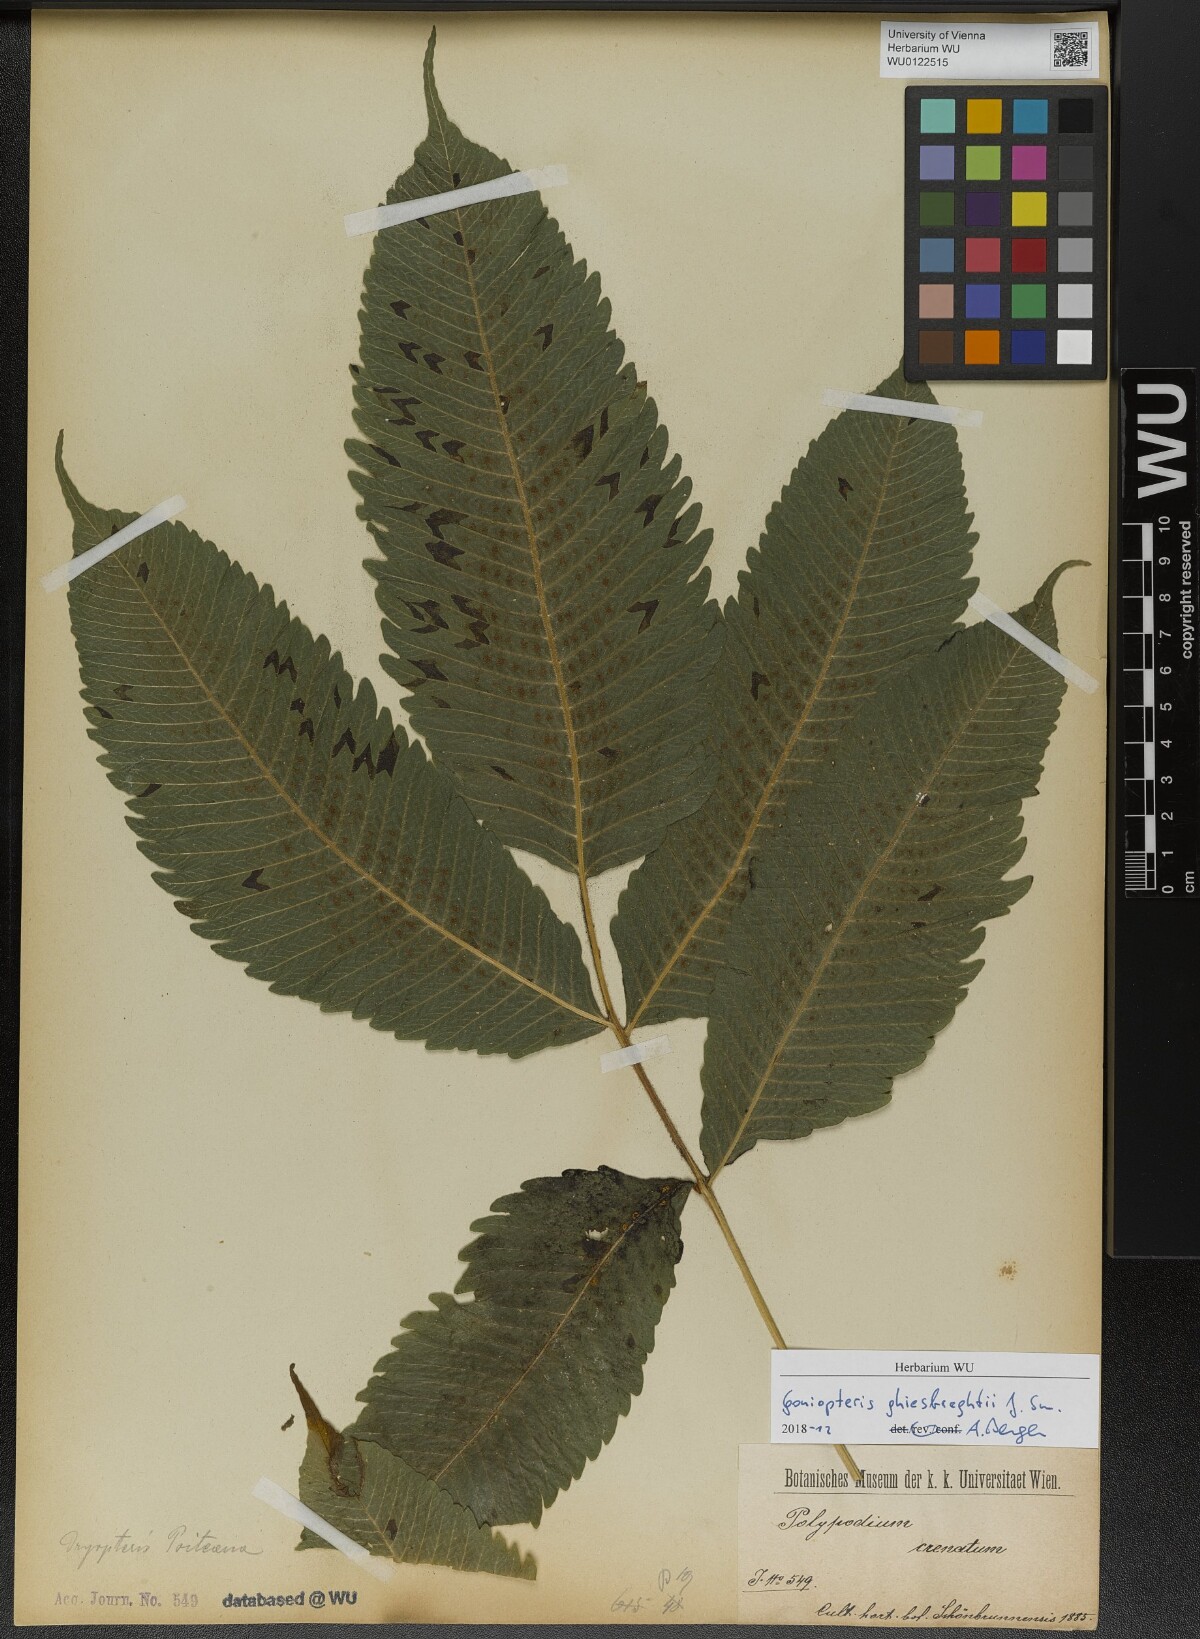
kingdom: Plantae
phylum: Tracheophyta
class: Polypodiopsida
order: Polypodiales
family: Thelypteridaceae
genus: Goniopteris
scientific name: Goniopteris mollis
